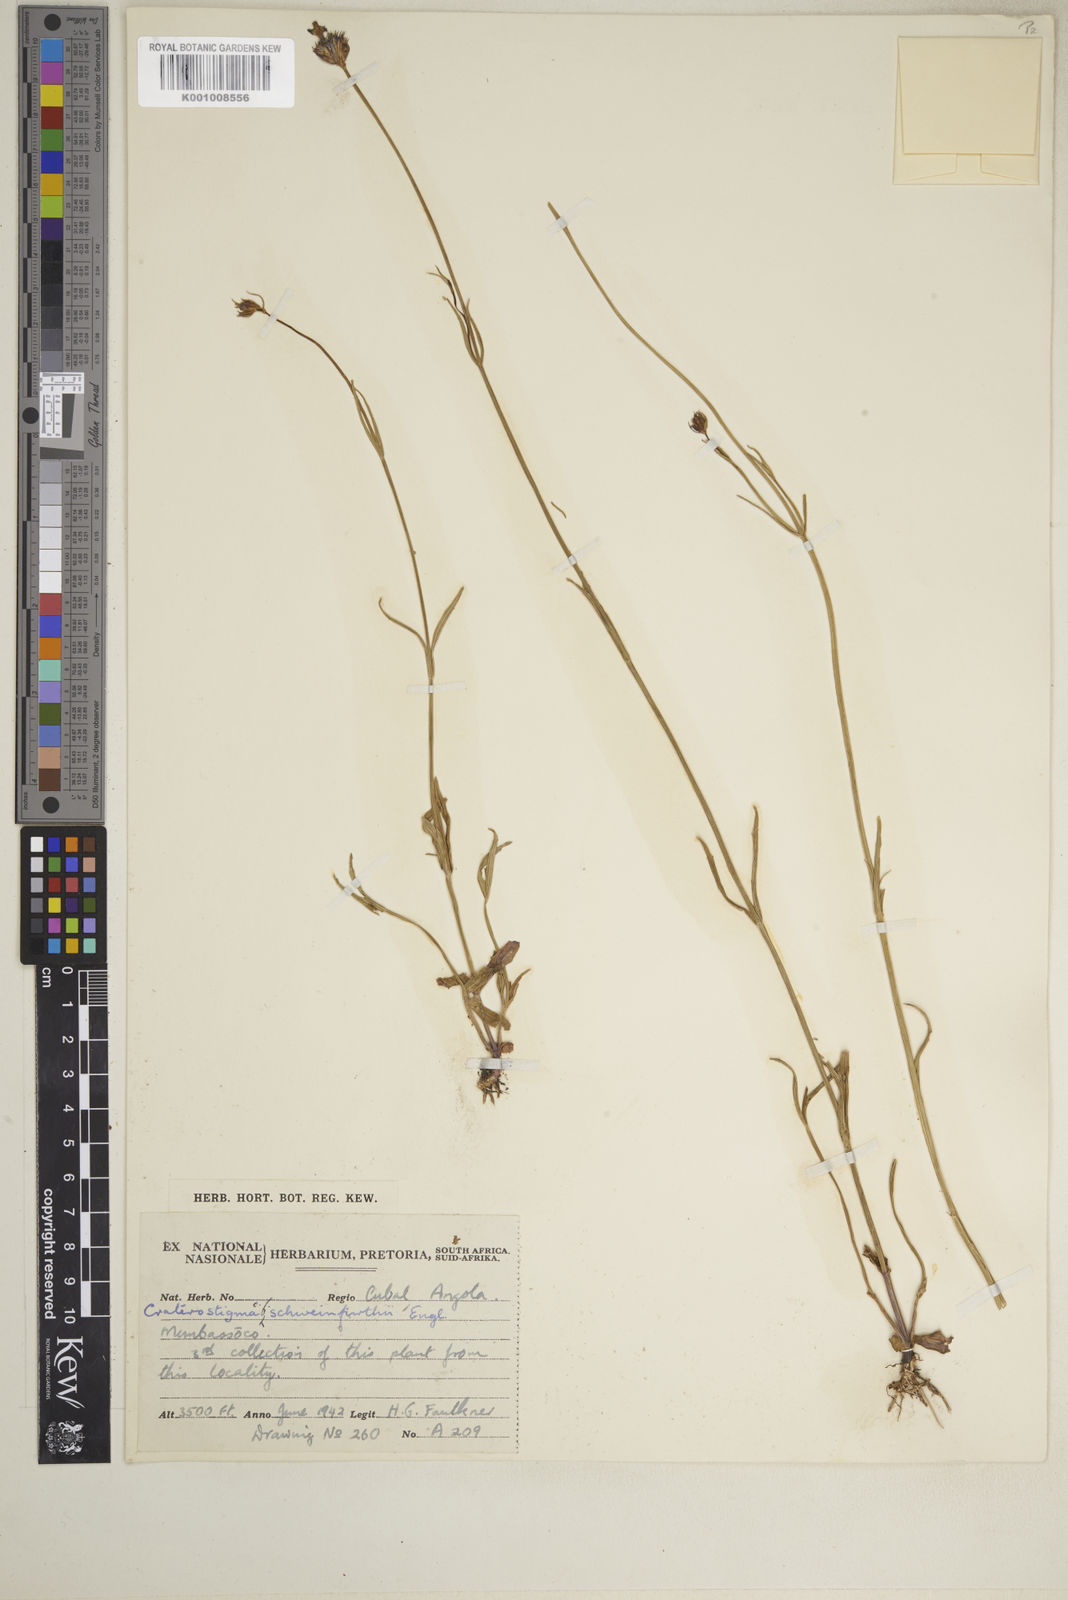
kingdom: Plantae
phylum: Tracheophyta
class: Magnoliopsida
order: Lamiales
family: Linderniaceae
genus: Crepidorhopalon
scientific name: Crepidorhopalon schweinfurthii
